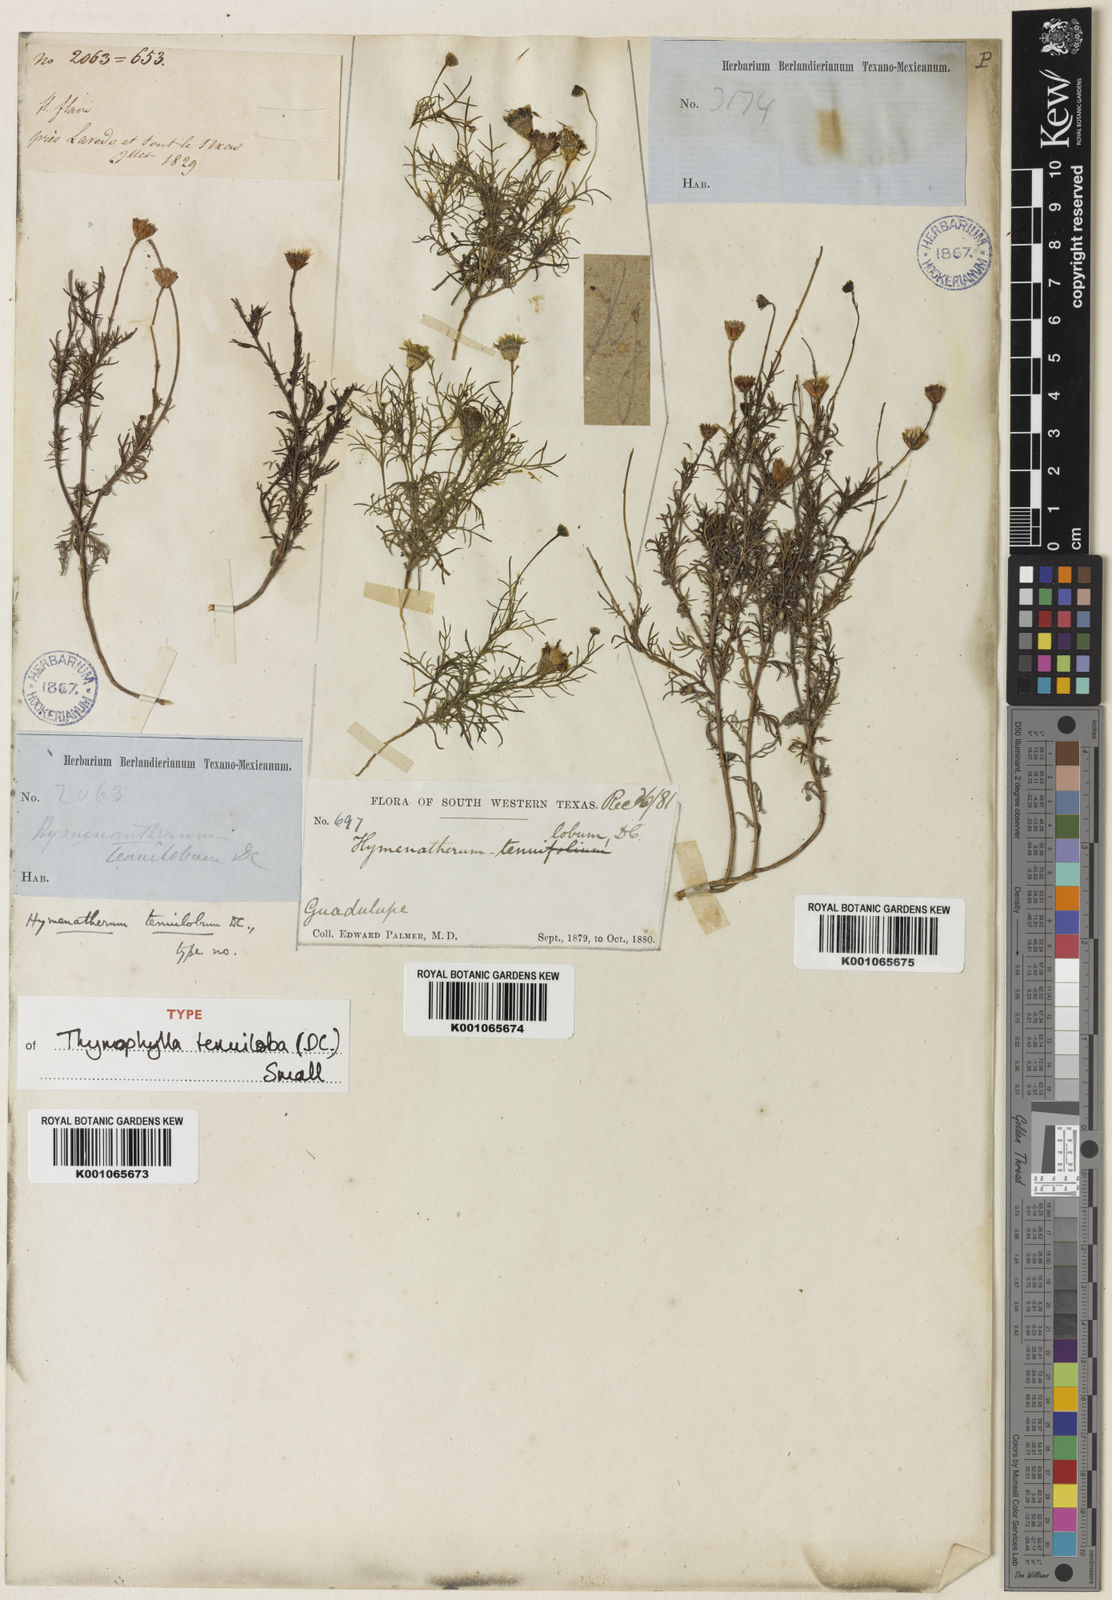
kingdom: Plantae
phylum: Tracheophyta
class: Magnoliopsida
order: Asterales
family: Asteraceae
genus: Thymophylla
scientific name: Thymophylla tenuiloba
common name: Dahlberg's daisy
